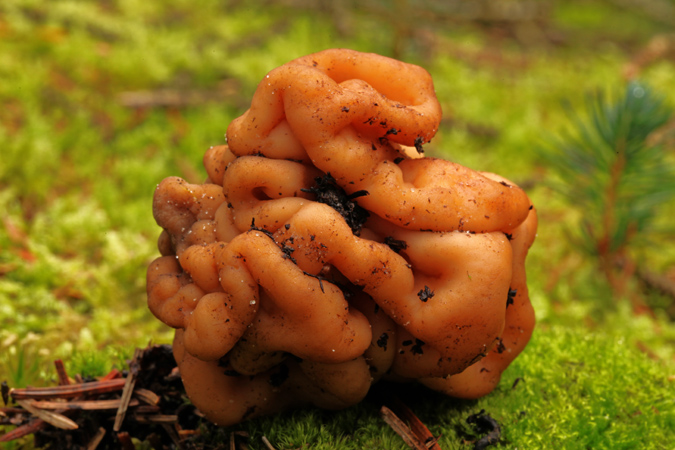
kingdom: Fungi
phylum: Ascomycota
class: Pezizomycetes
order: Pezizales
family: Discinaceae
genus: Hydnotrya
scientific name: Hydnotrya cubispora
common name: kassesporet foldtrøffel
